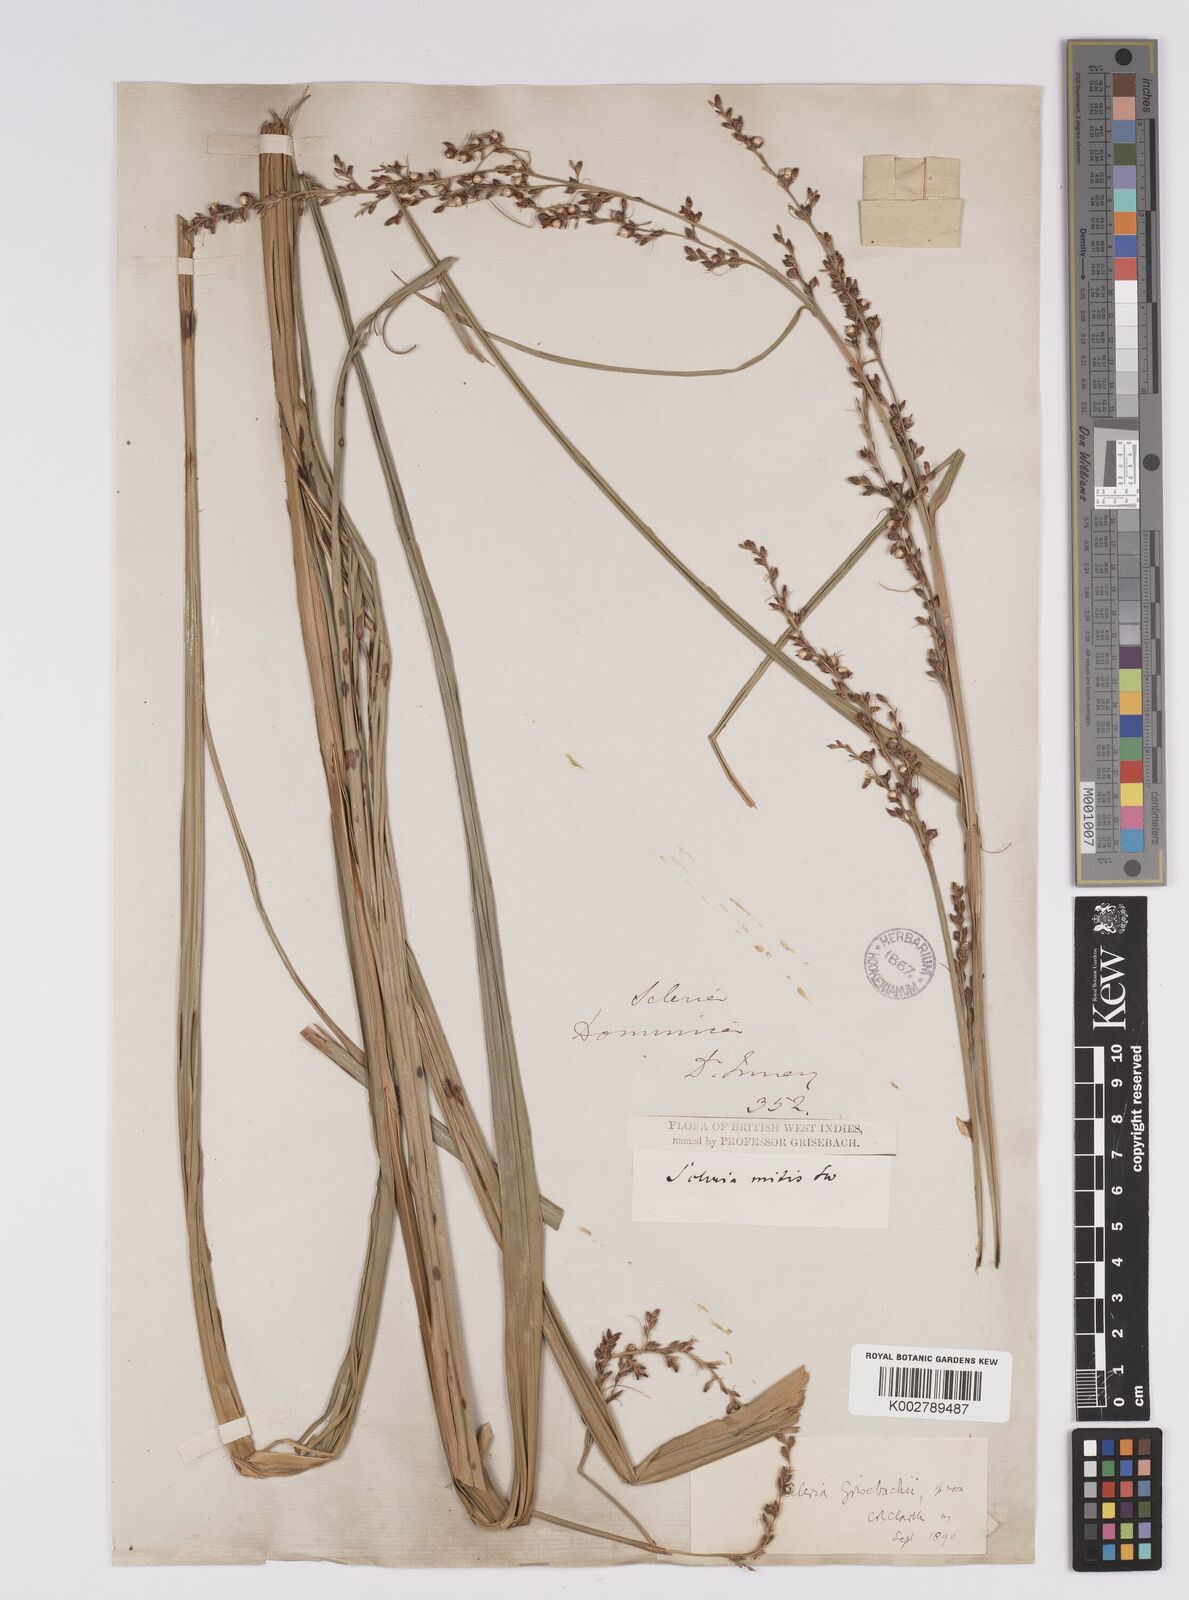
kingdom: Plantae
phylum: Tracheophyta
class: Liliopsida
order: Poales
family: Cyperaceae
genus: Scleria
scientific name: Scleria eggersiana
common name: Eggers' nutrush
